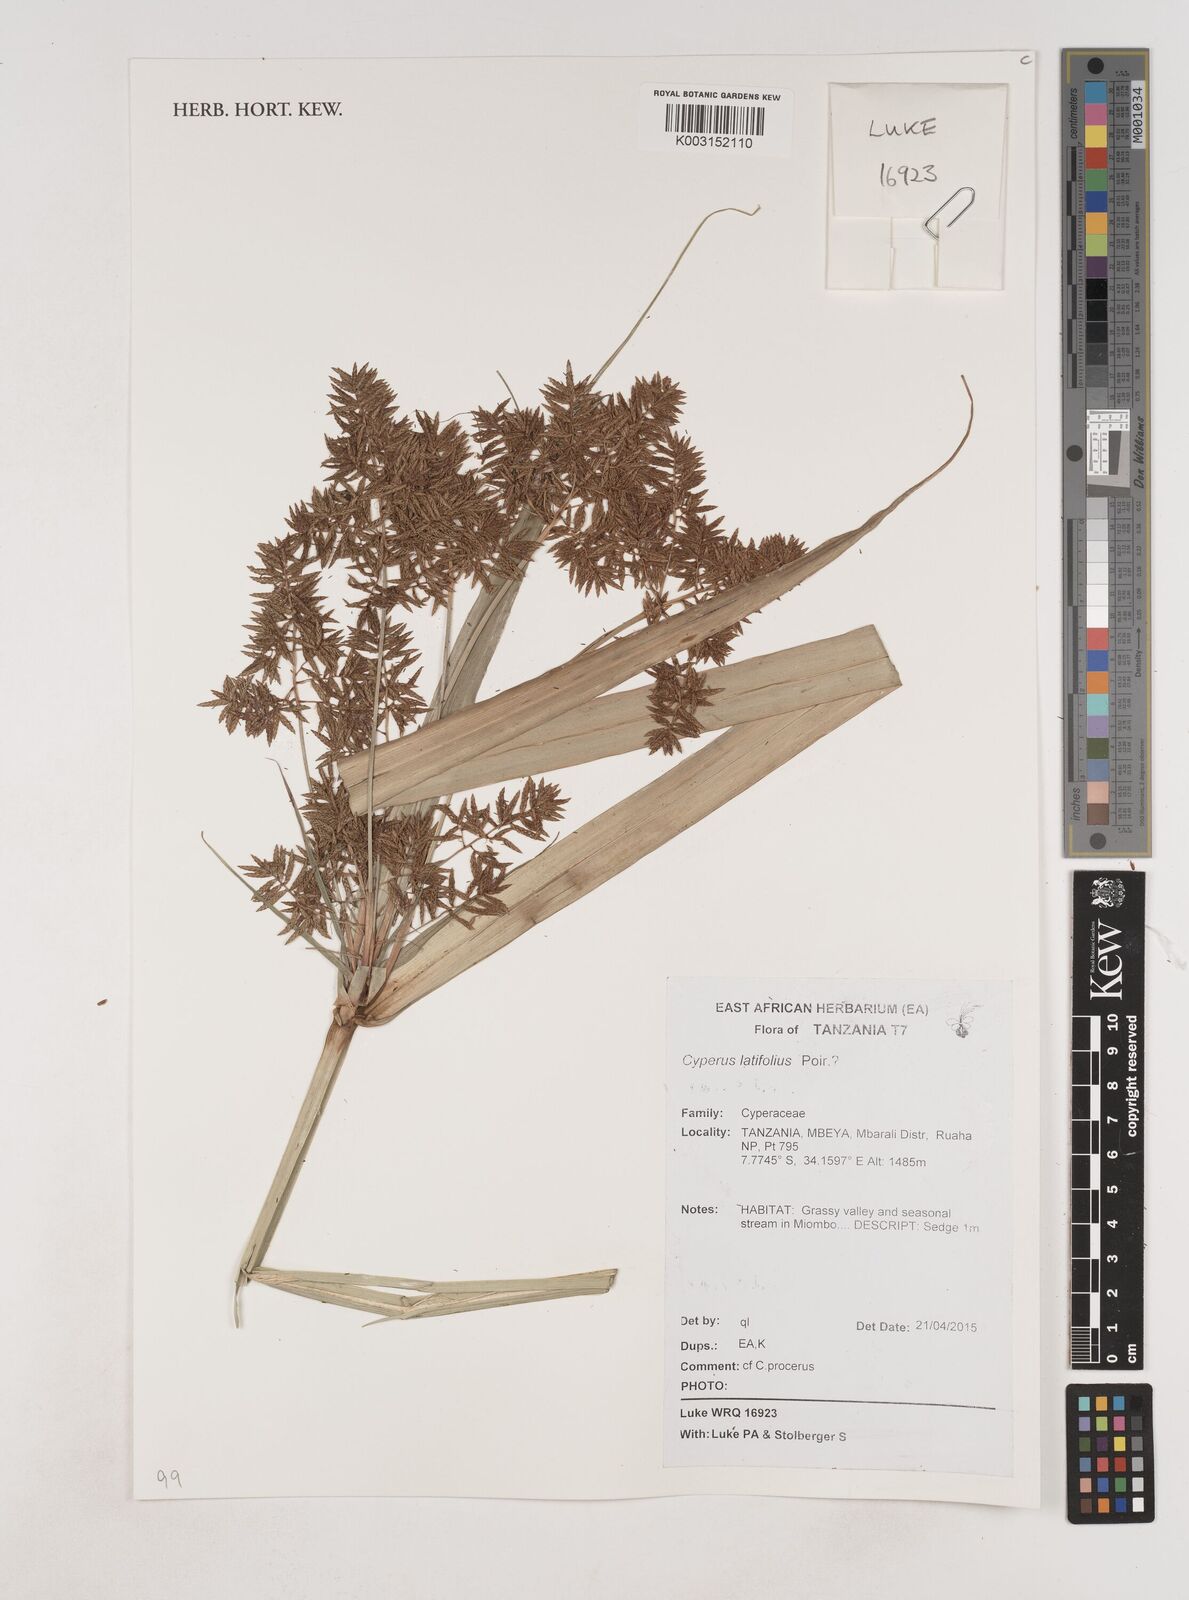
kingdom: Plantae
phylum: Tracheophyta
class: Liliopsida
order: Poales
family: Cyperaceae
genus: Cyperus
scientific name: Cyperus latifolius
